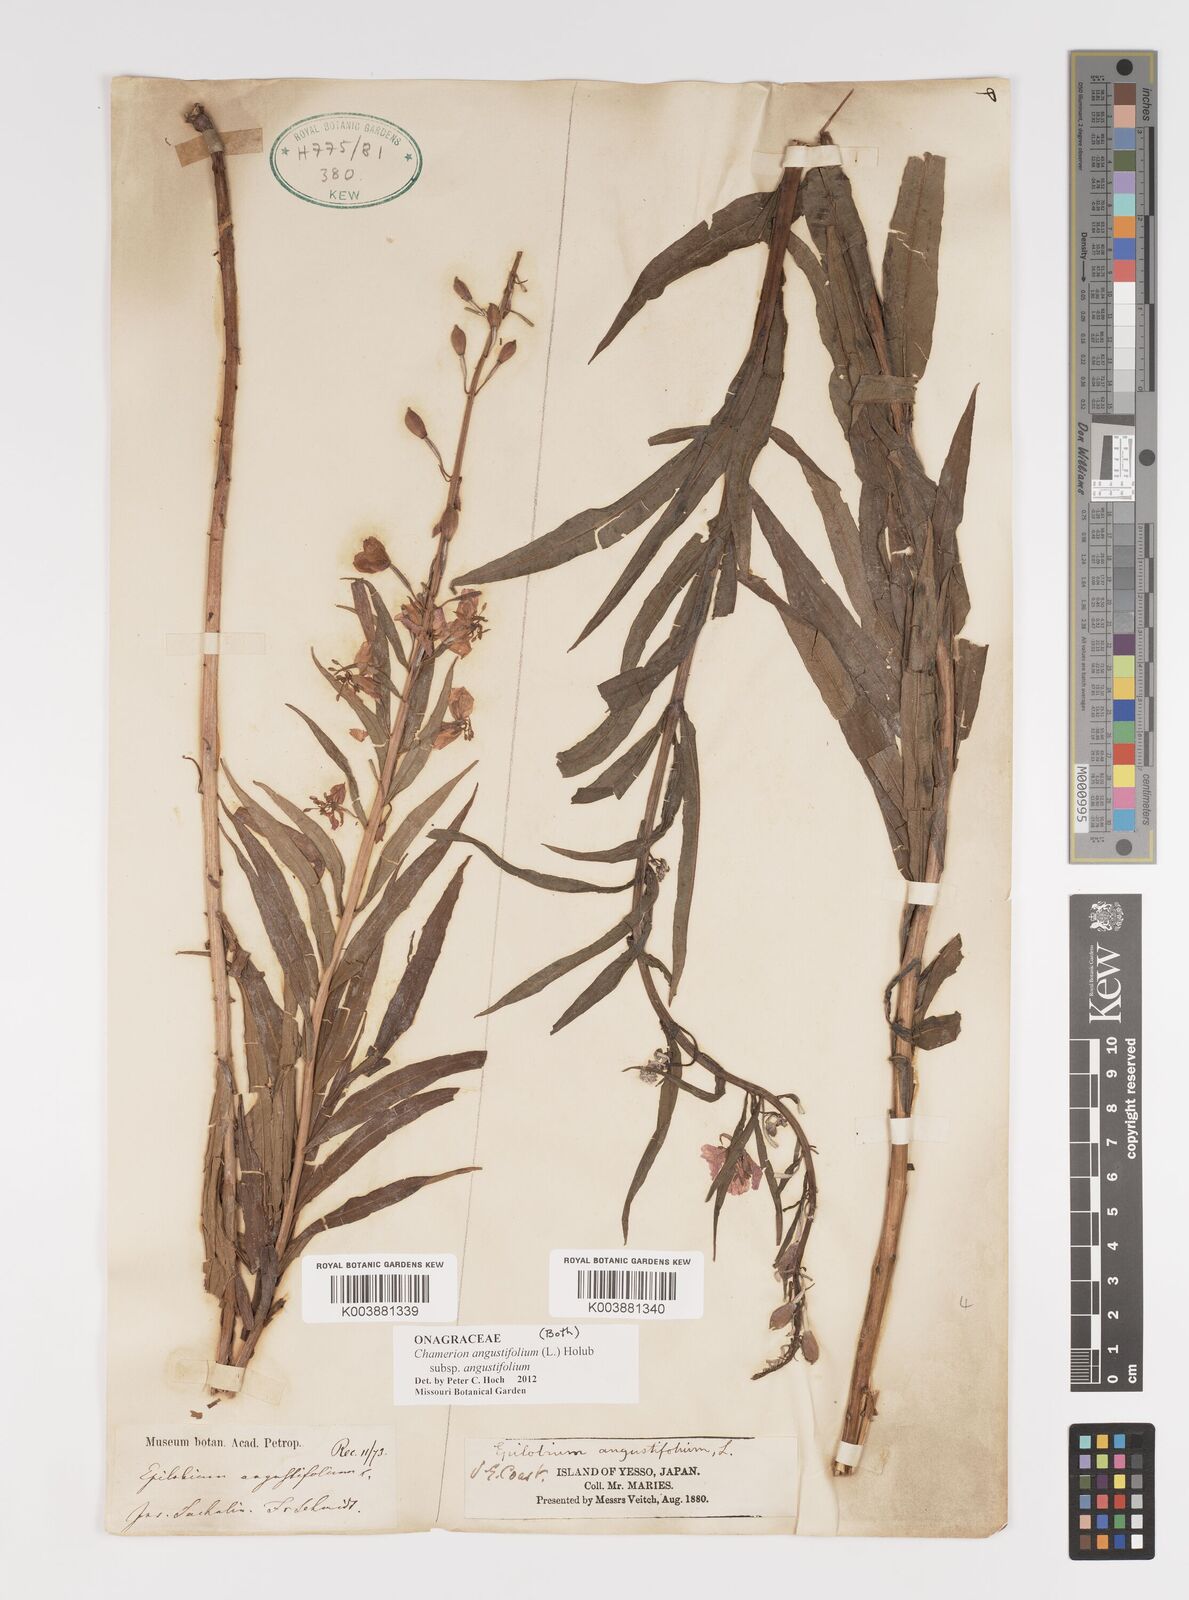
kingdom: Plantae
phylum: Tracheophyta
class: Magnoliopsida
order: Myrtales
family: Onagraceae
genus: Chamaenerion
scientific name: Chamaenerion angustifolium
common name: Fireweed
